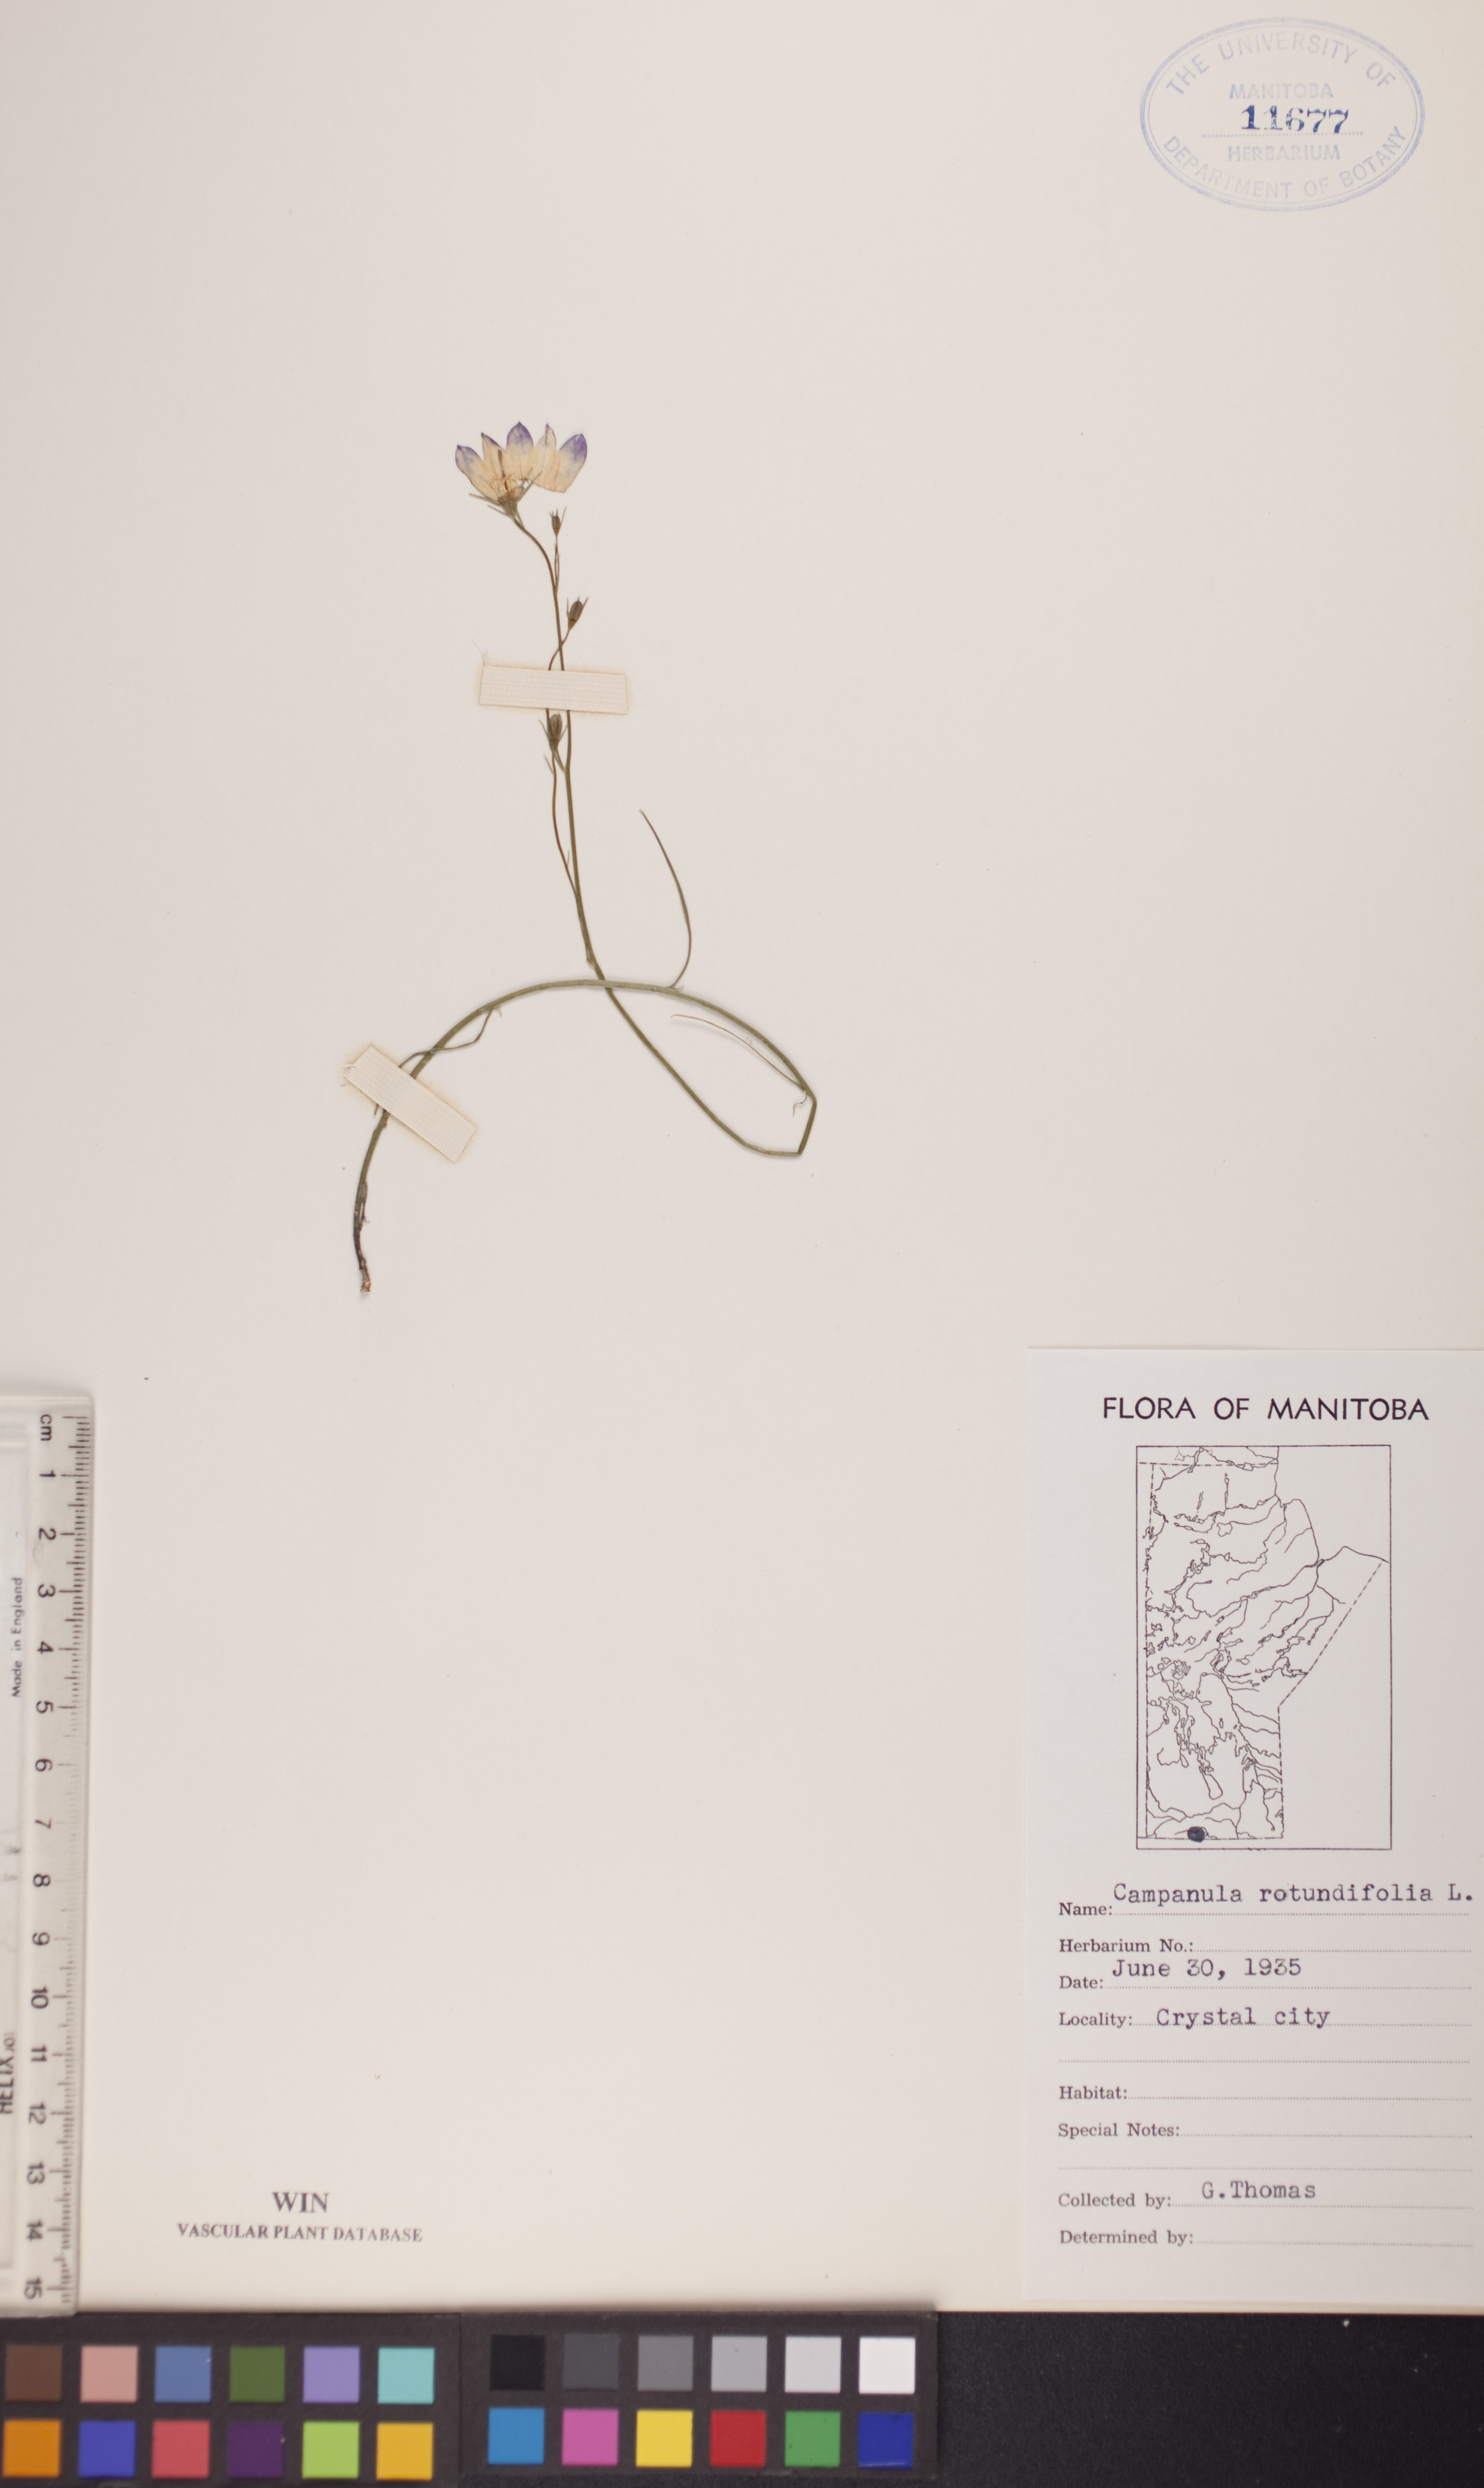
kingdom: Plantae
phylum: Tracheophyta
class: Magnoliopsida
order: Asterales
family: Campanulaceae
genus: Campanula
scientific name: Campanula rotundifolia
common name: Harebell
